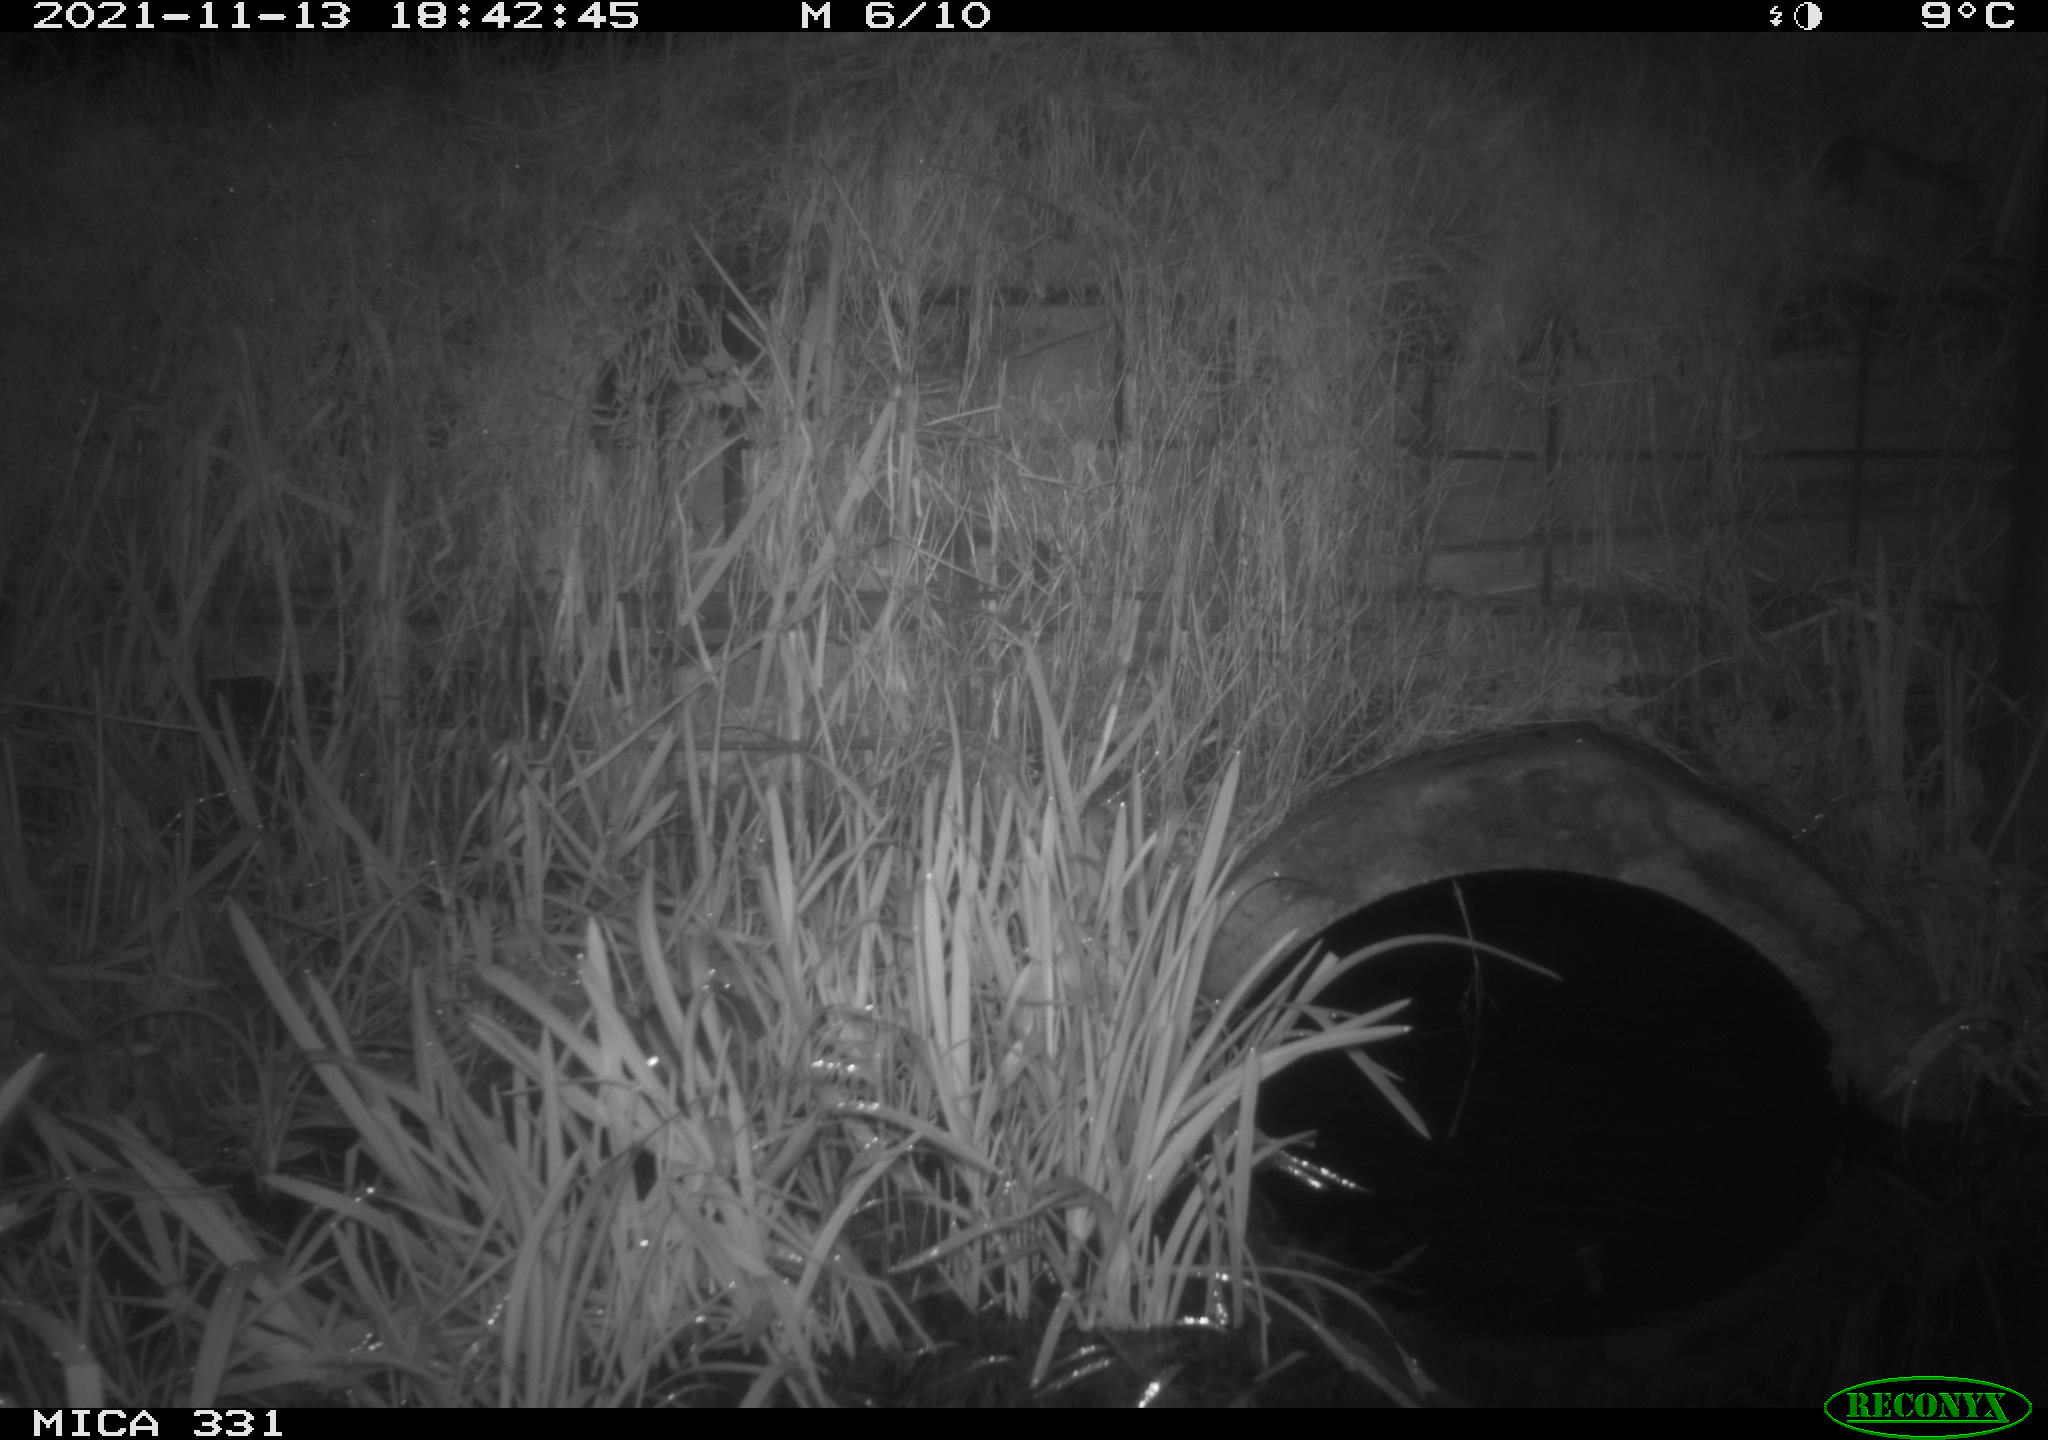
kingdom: Animalia
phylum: Chordata
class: Mammalia
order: Rodentia
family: Muridae
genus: Rattus
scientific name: Rattus norvegicus
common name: Brown rat
